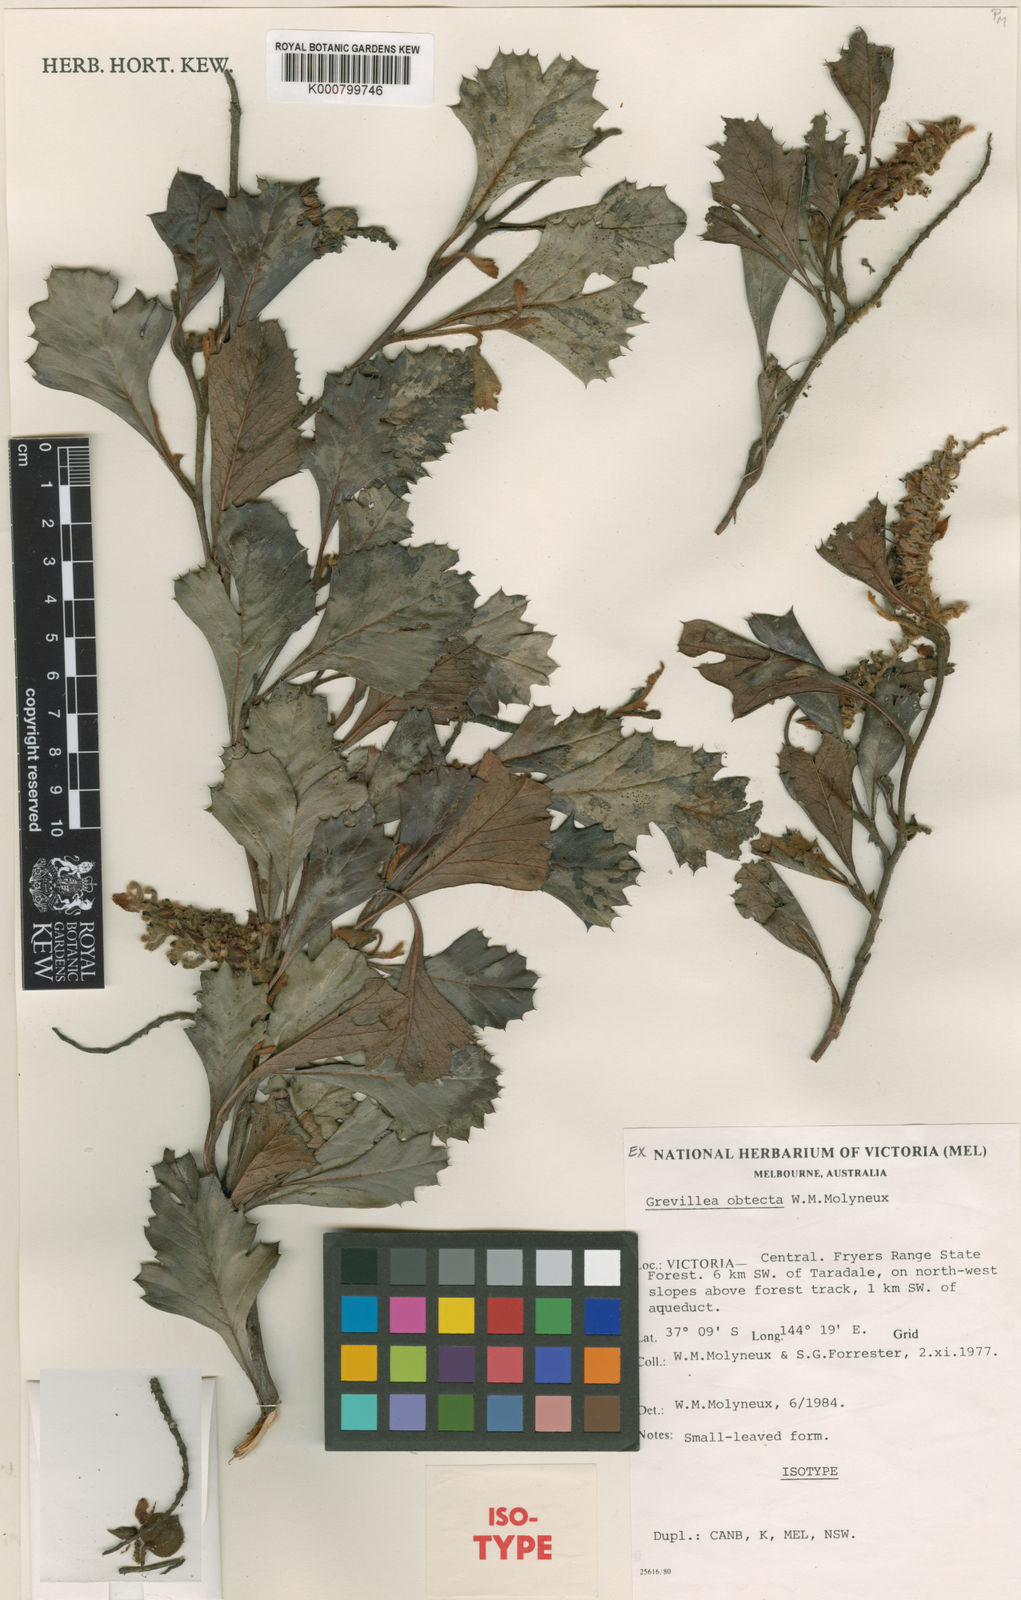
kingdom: Plantae
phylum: Tracheophyta
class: Magnoliopsida
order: Proteales
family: Proteaceae
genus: Grevillea
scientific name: Grevillea obtecta
